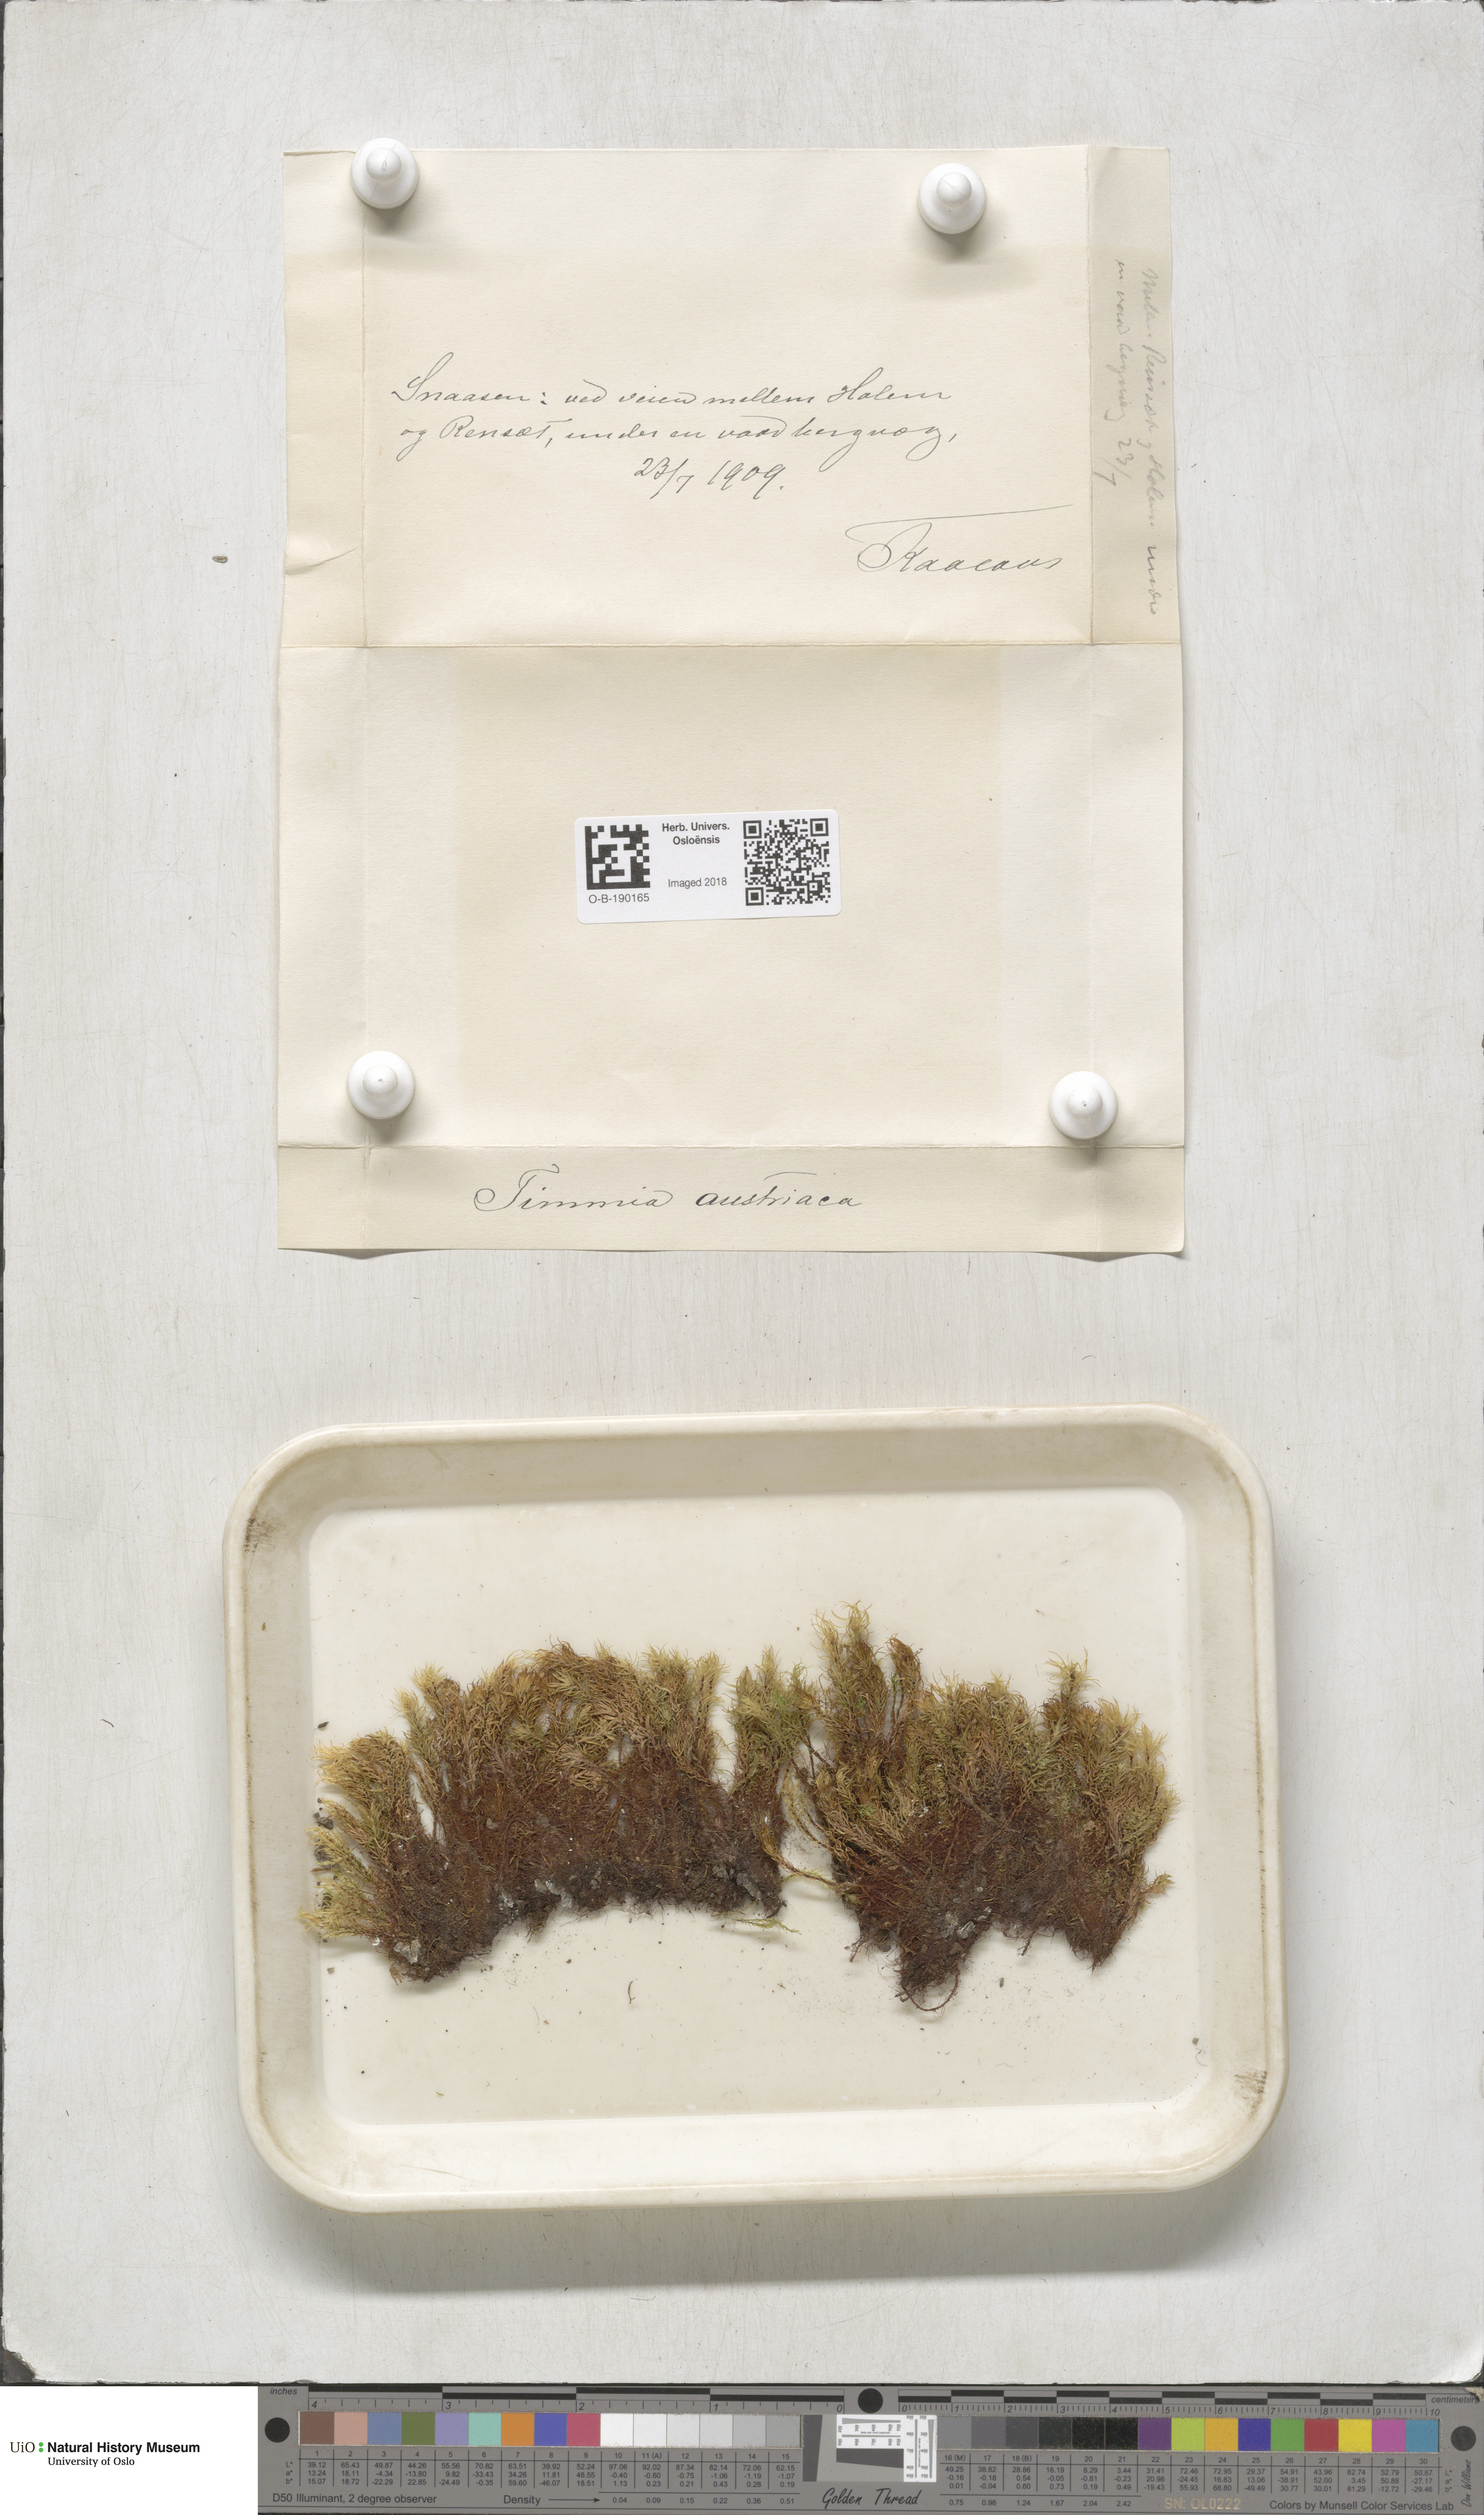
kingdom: Plantae
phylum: Bryophyta
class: Bryopsida
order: Timmiales
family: Timmiaceae
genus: Timmia
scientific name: Timmia austriaca
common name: Austrian timmia
